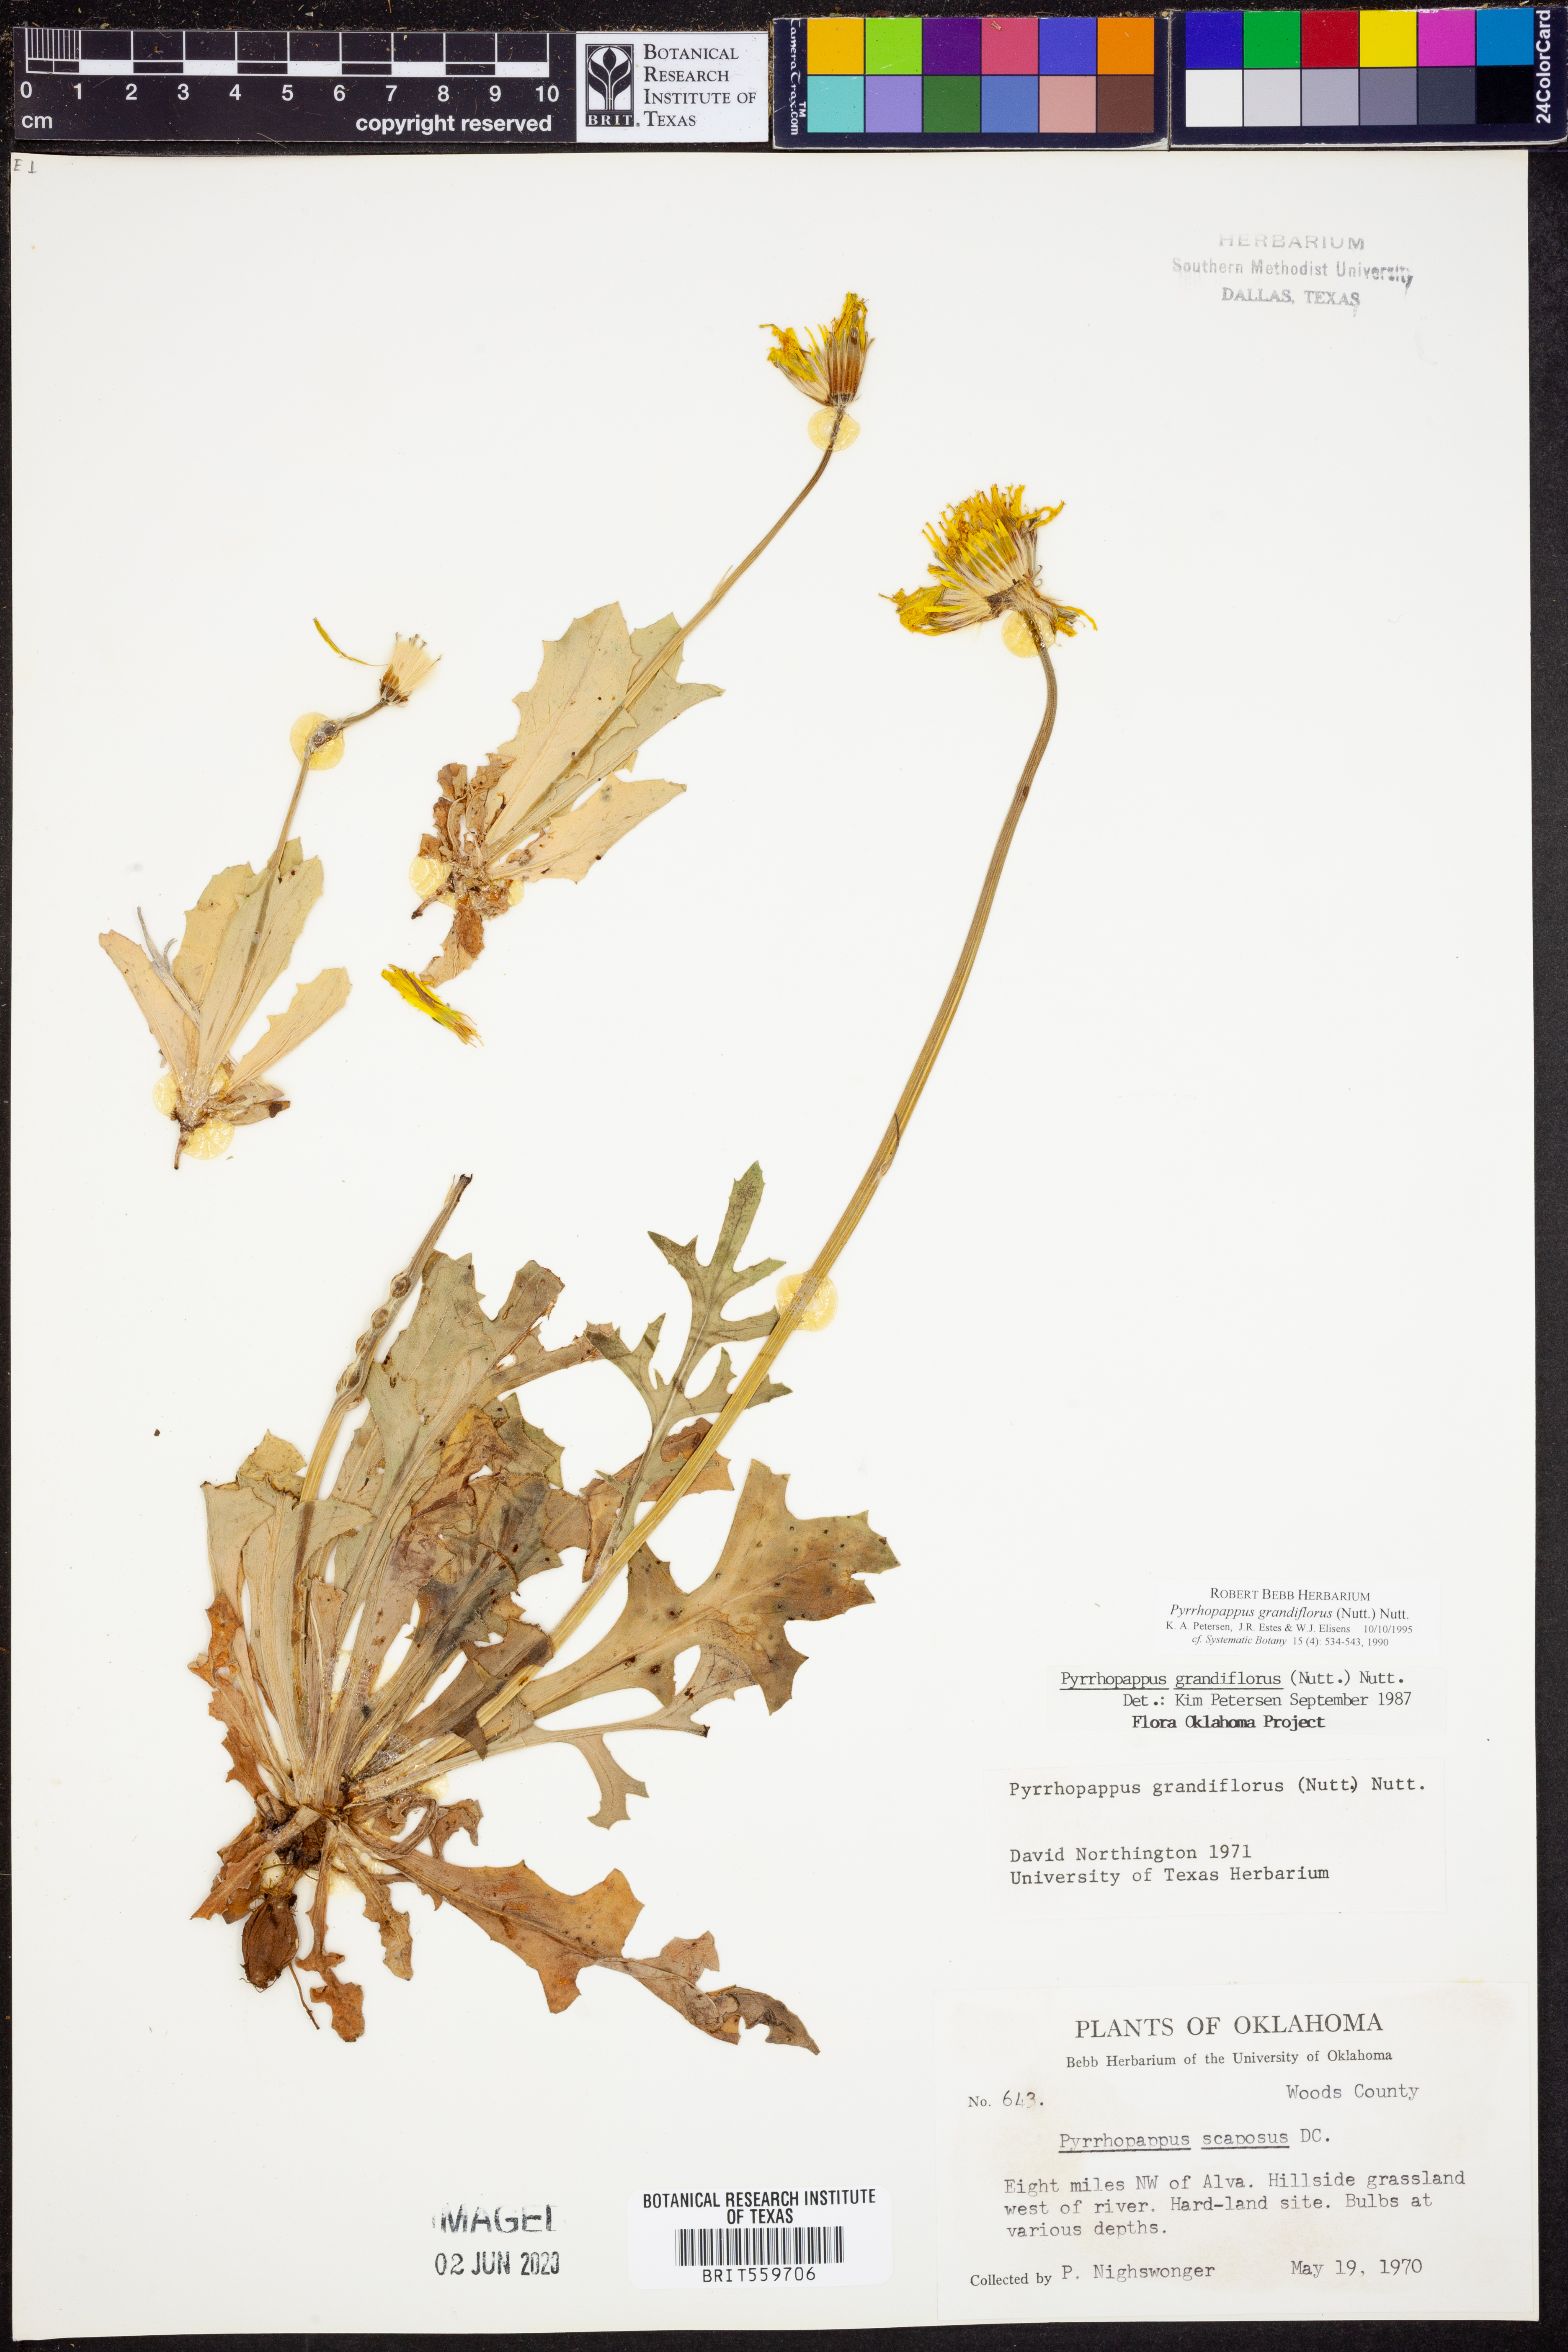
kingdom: Plantae
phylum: Tracheophyta
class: Magnoliopsida
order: Asterales
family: Asteraceae
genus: Pyrrhopappus
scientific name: Pyrrhopappus grandiflorus
